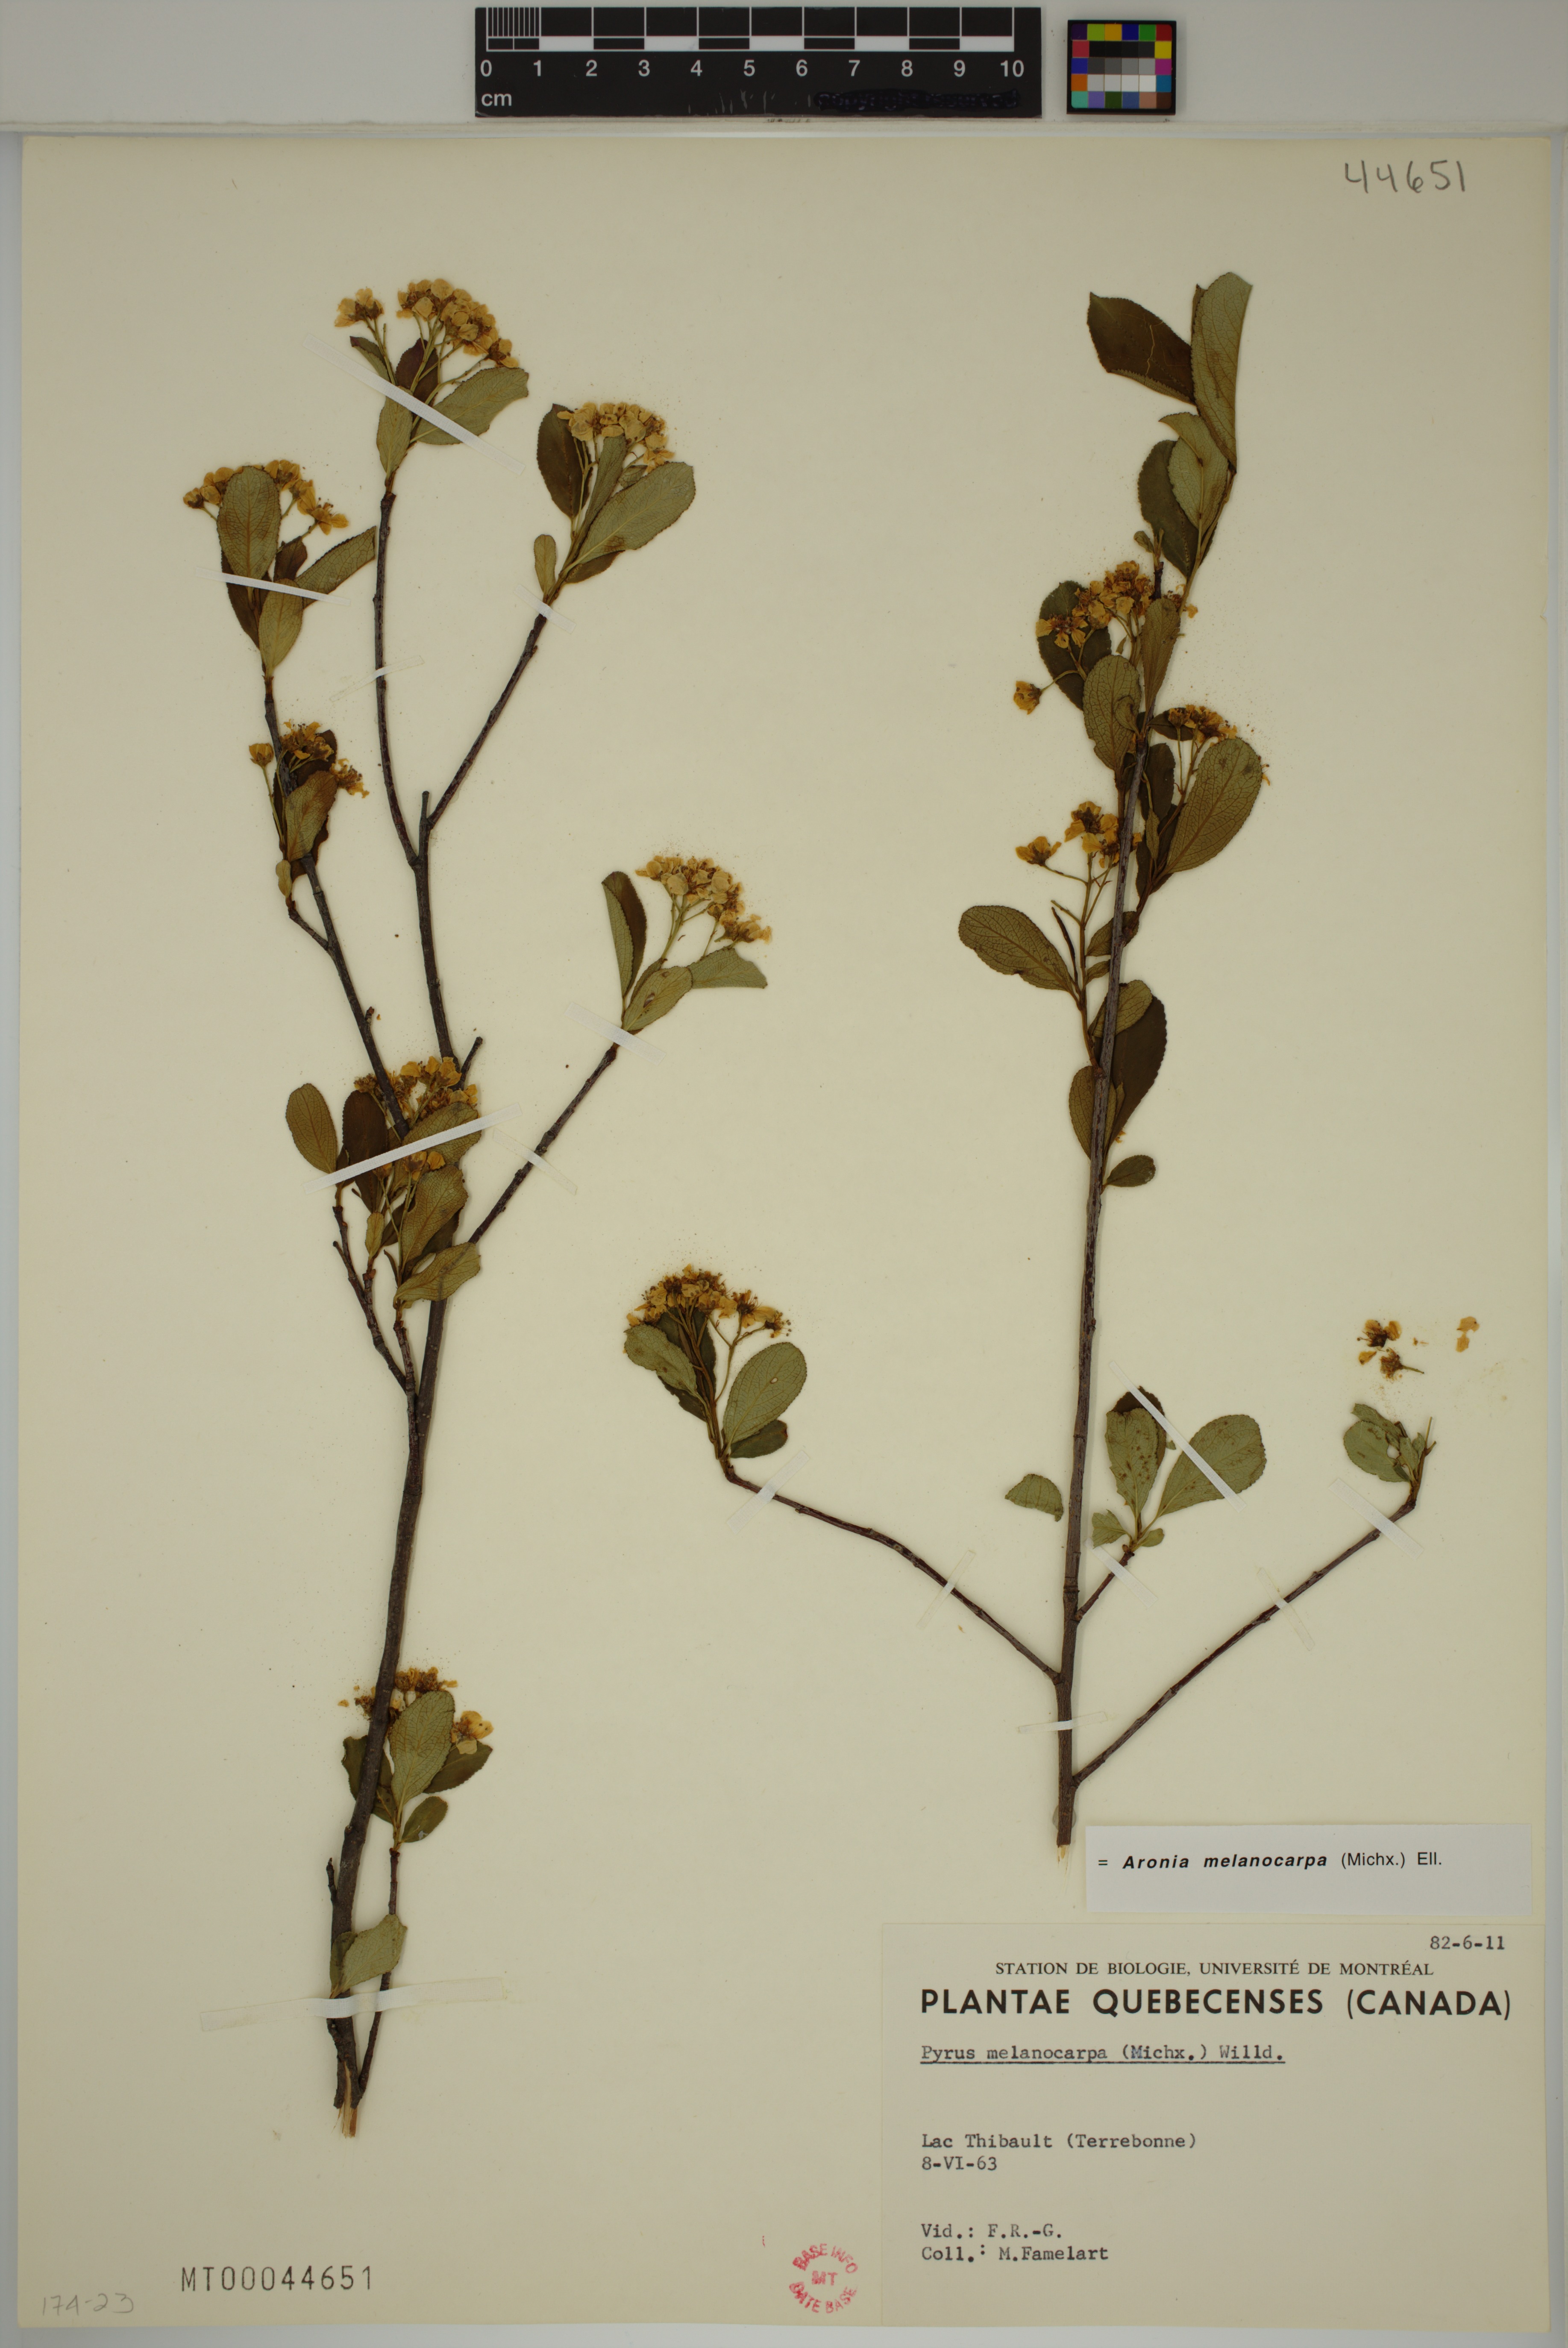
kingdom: Plantae
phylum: Tracheophyta
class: Magnoliopsida
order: Rosales
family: Rosaceae
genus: Aronia
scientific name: Aronia melanocarpa
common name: Black chokeberry
